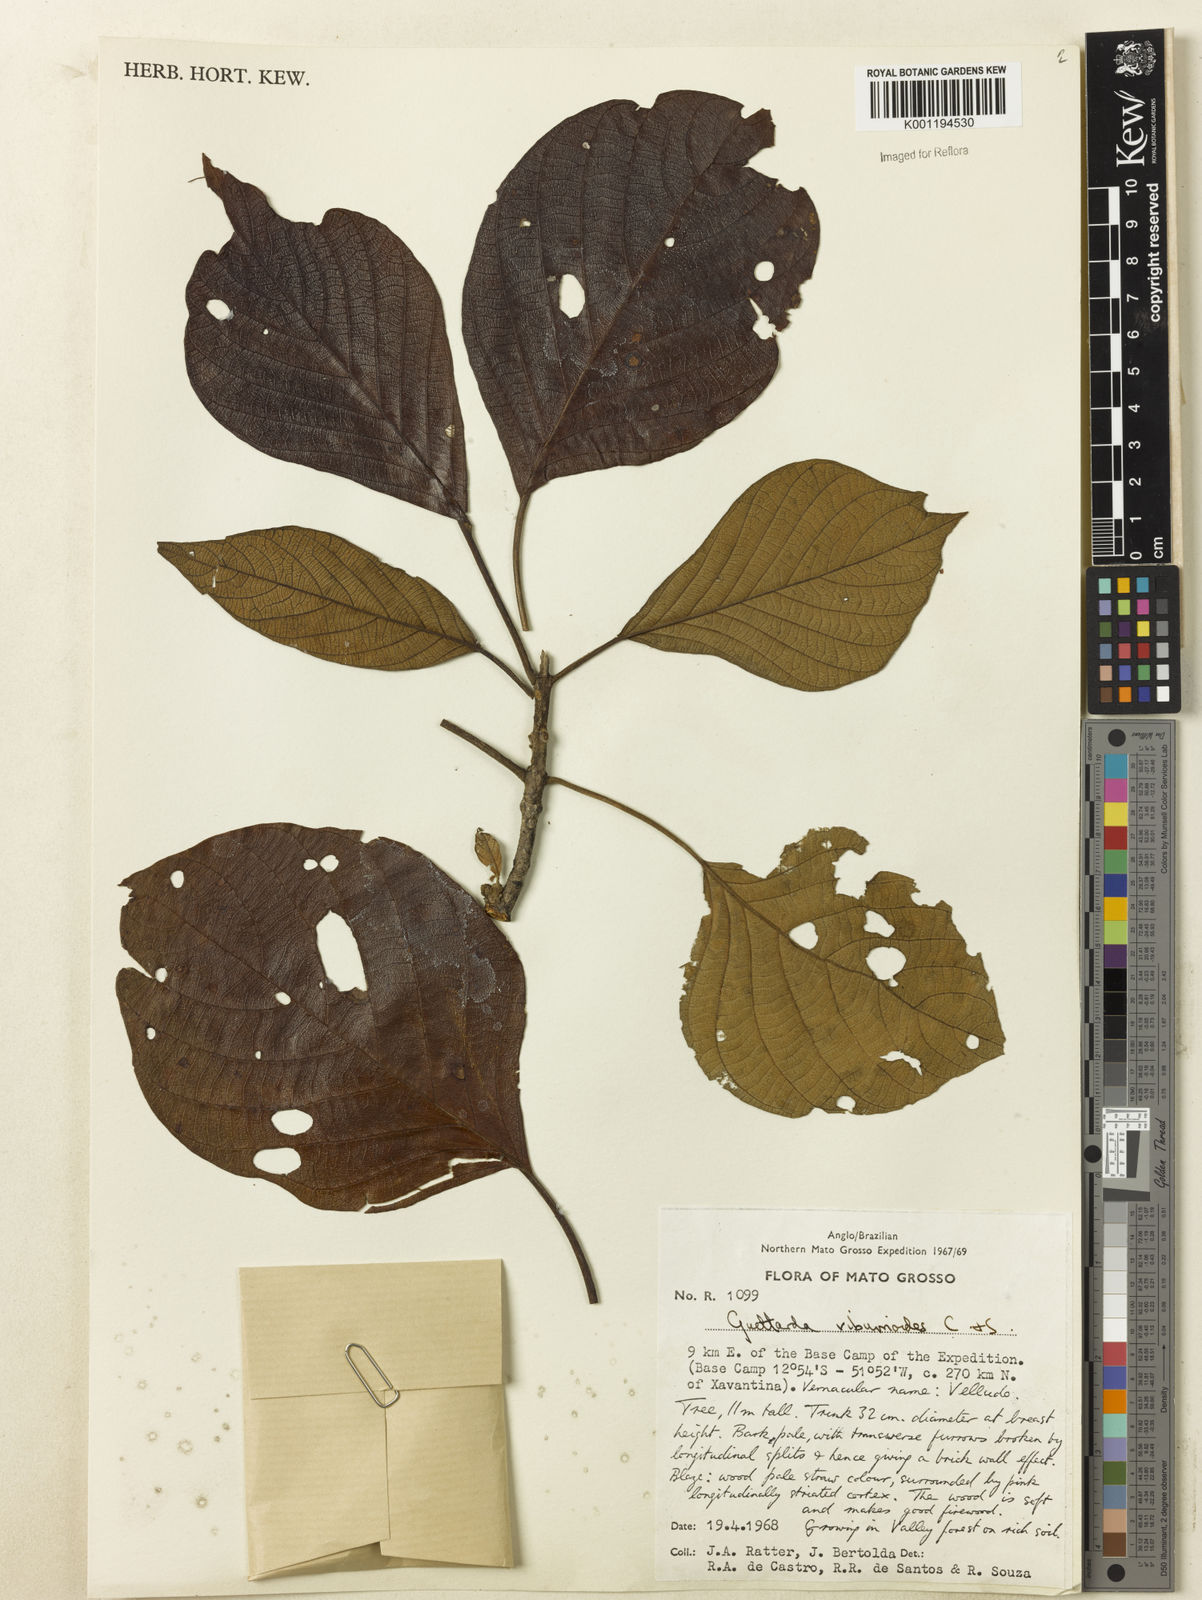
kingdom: Plantae
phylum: Tracheophyta
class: Magnoliopsida
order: Gentianales
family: Rubiaceae
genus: Guettarda
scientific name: Guettarda viburnoides
